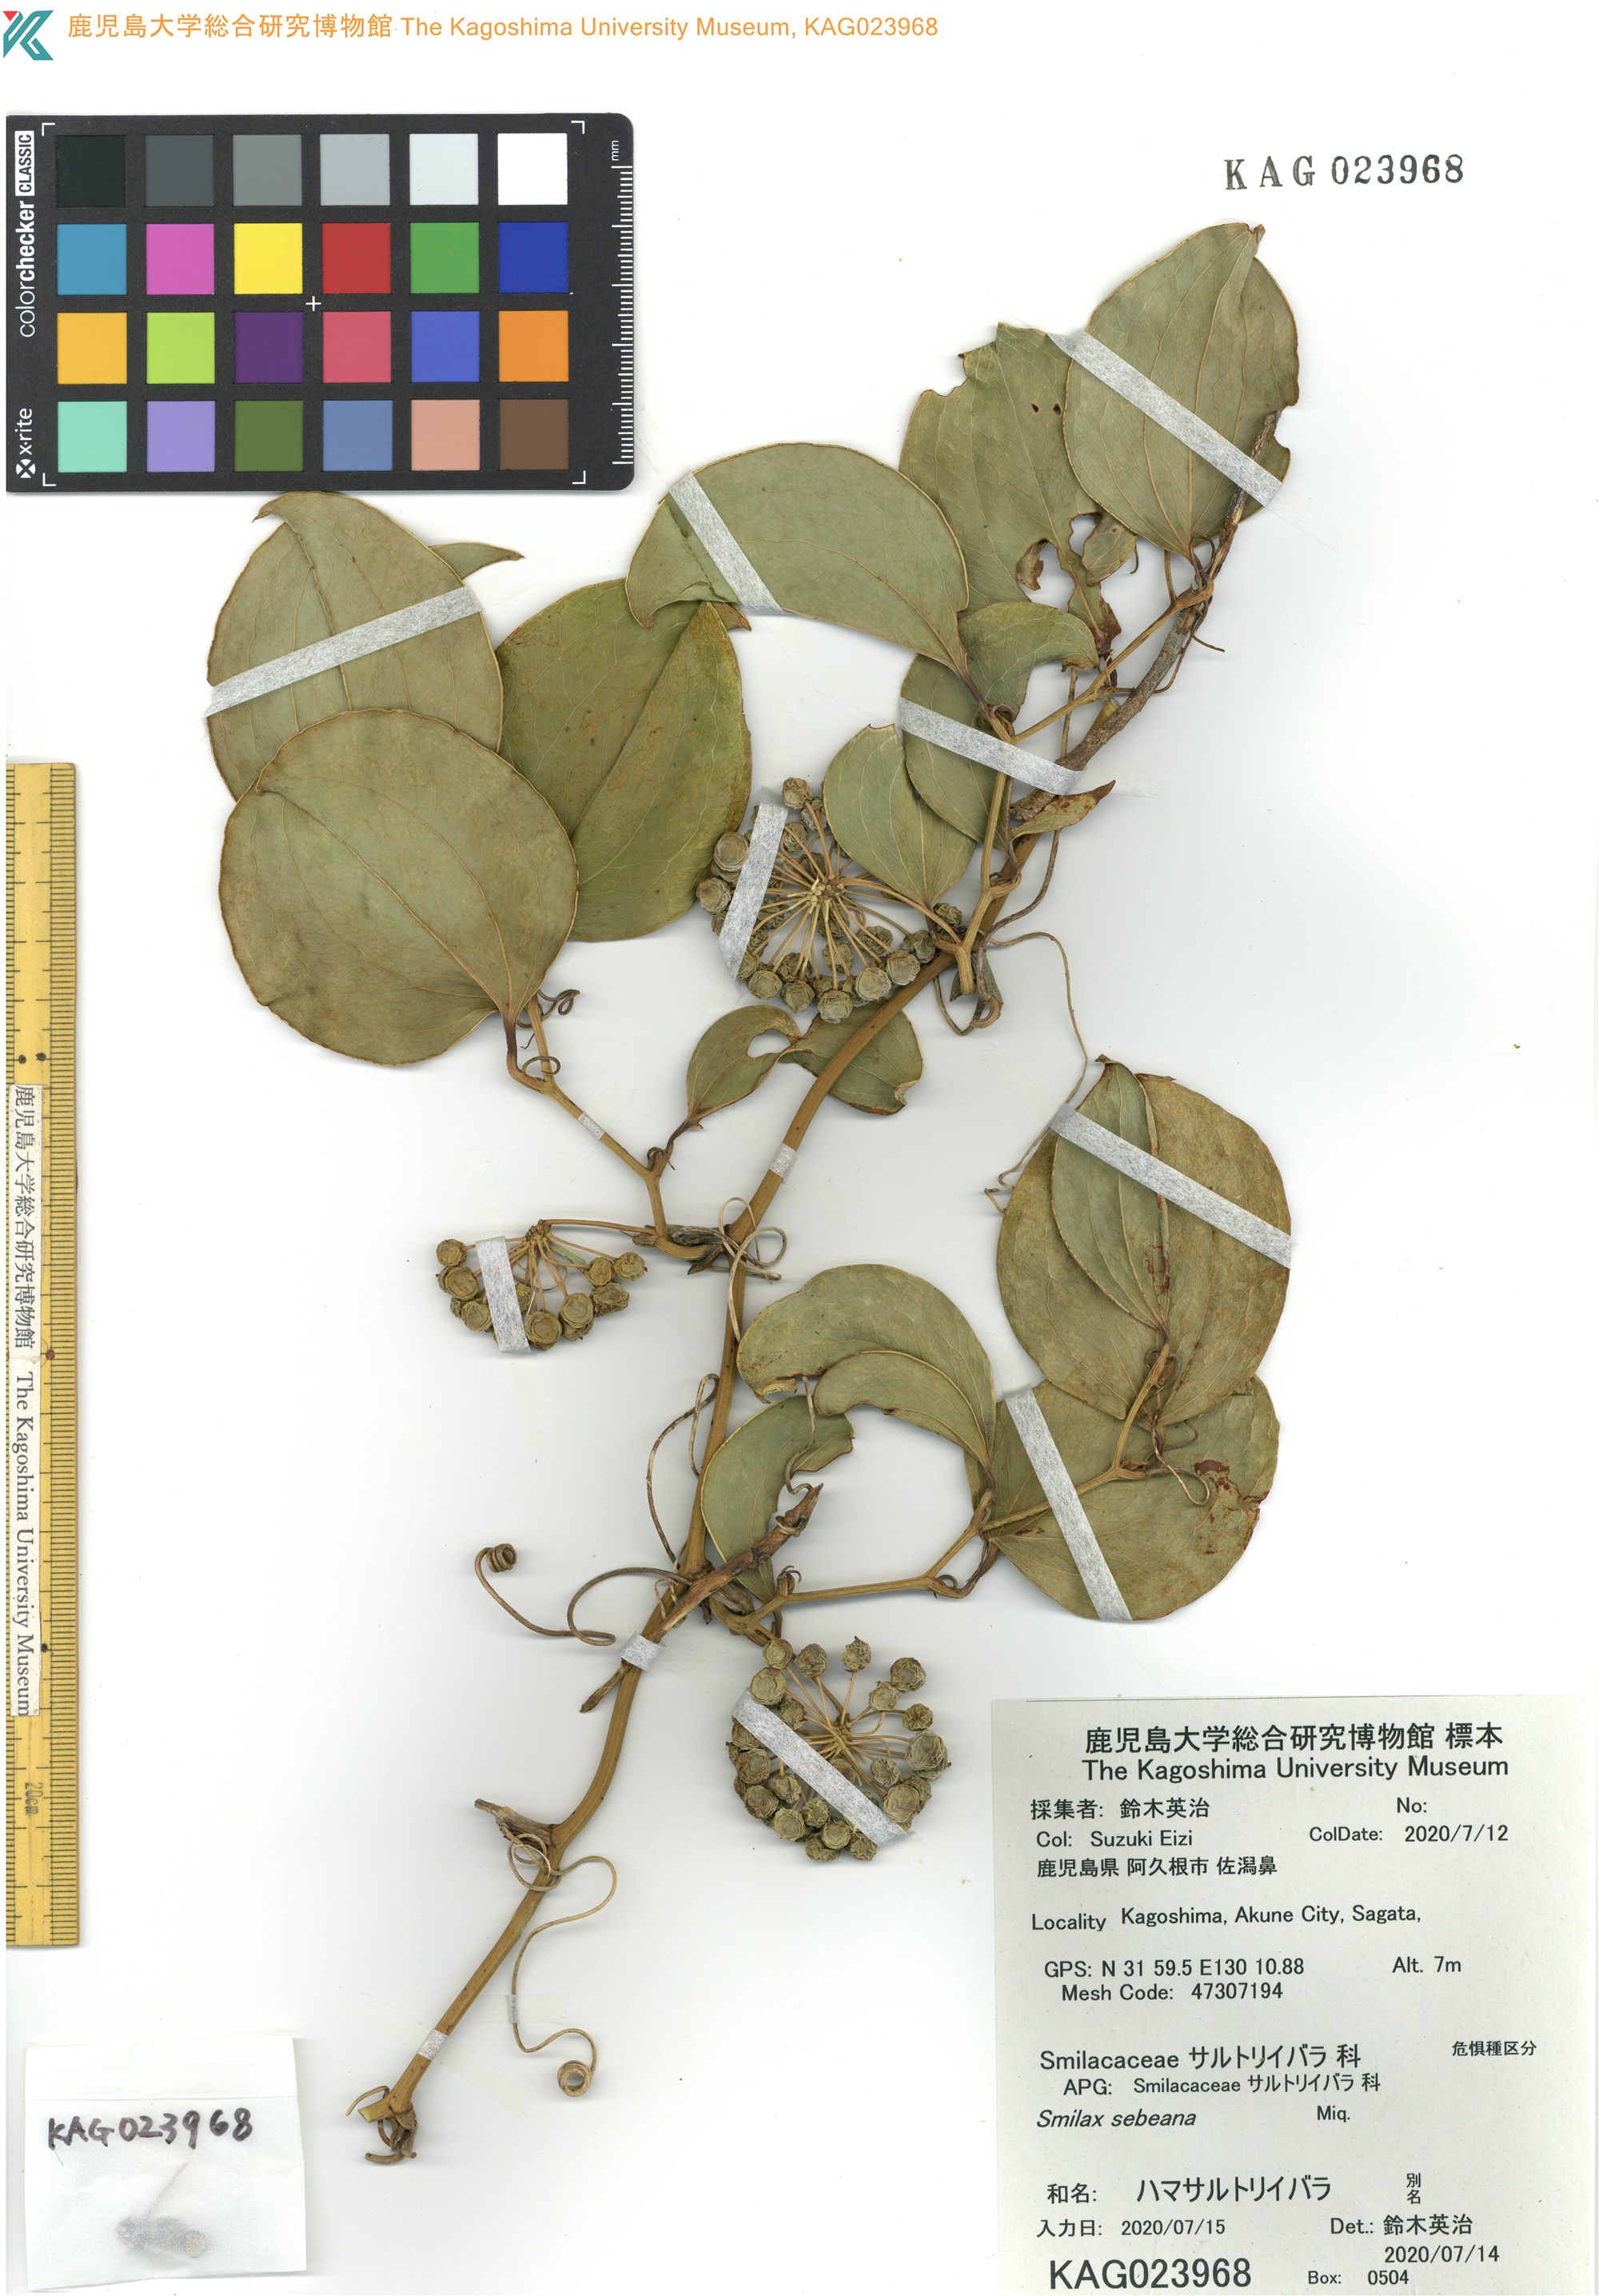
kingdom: Plantae
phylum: Tracheophyta
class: Liliopsida
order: Liliales
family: Smilacaceae
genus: Smilax
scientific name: Smilax sebeana
